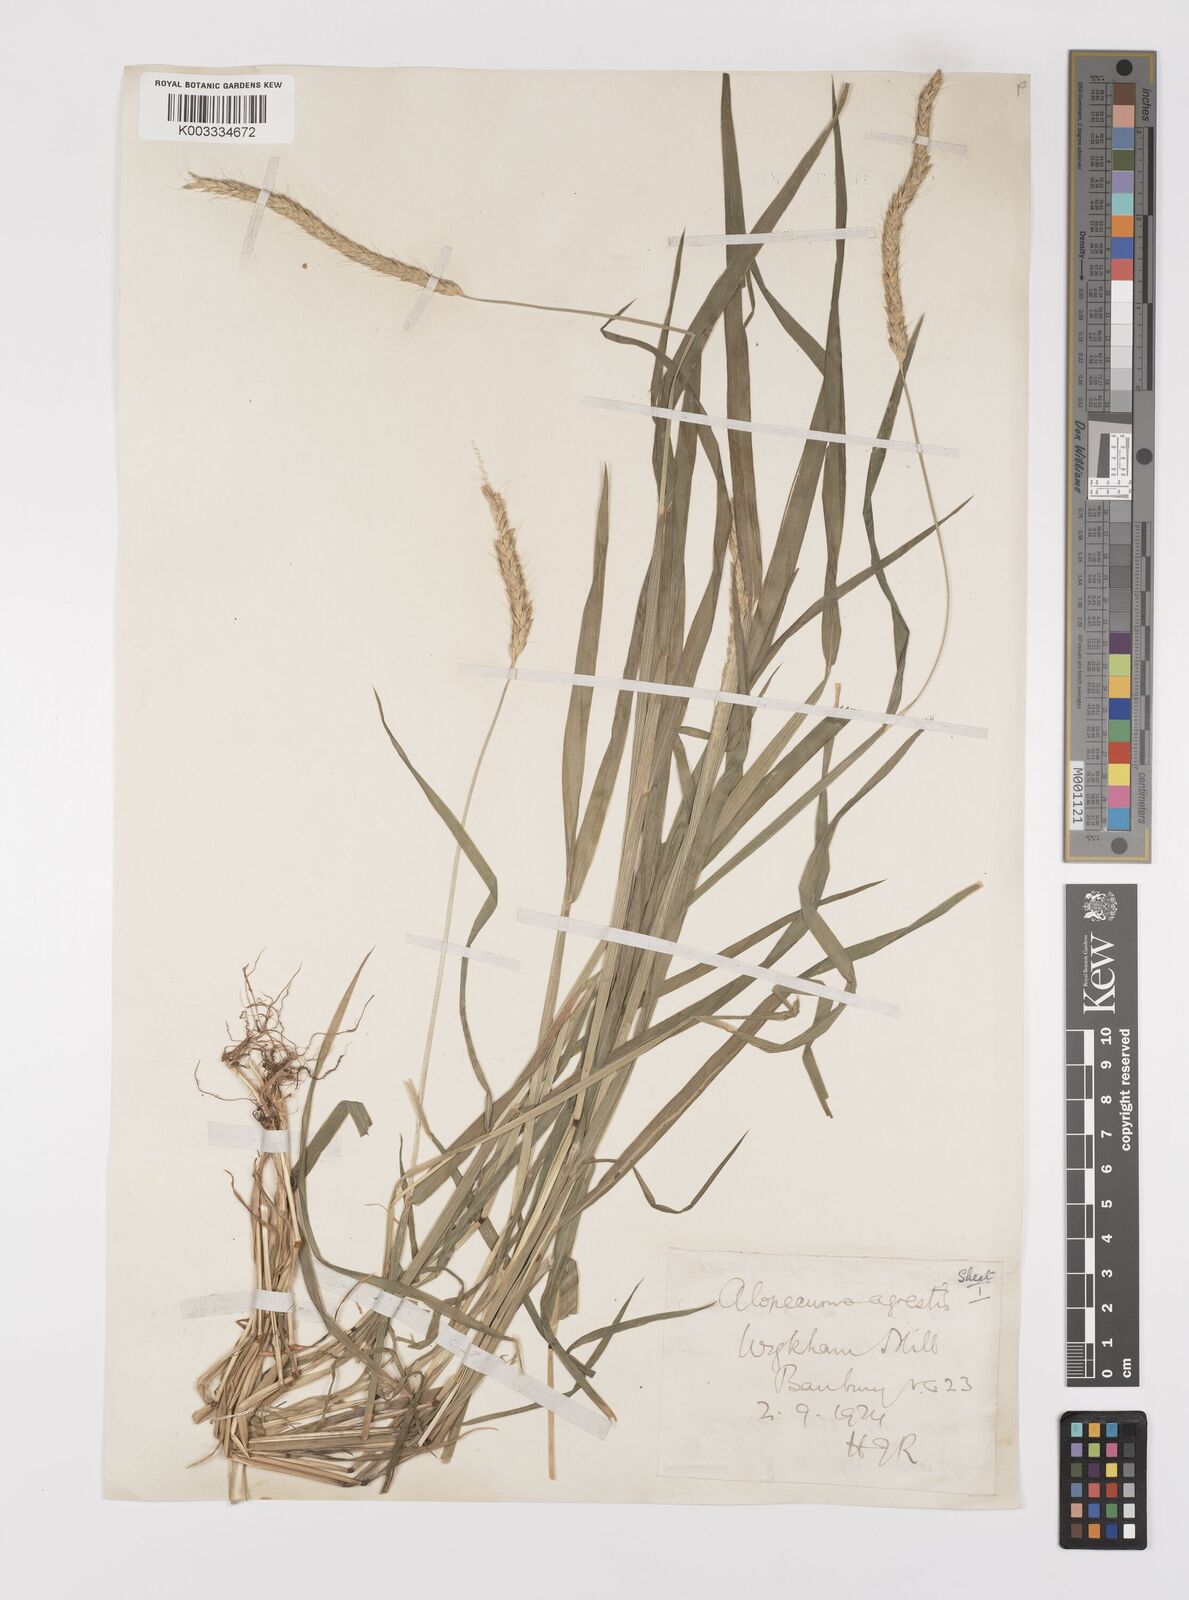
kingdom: Plantae
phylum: Tracheophyta
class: Liliopsida
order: Poales
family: Poaceae
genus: Alopecurus
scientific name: Alopecurus myosuroides
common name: Black-grass
